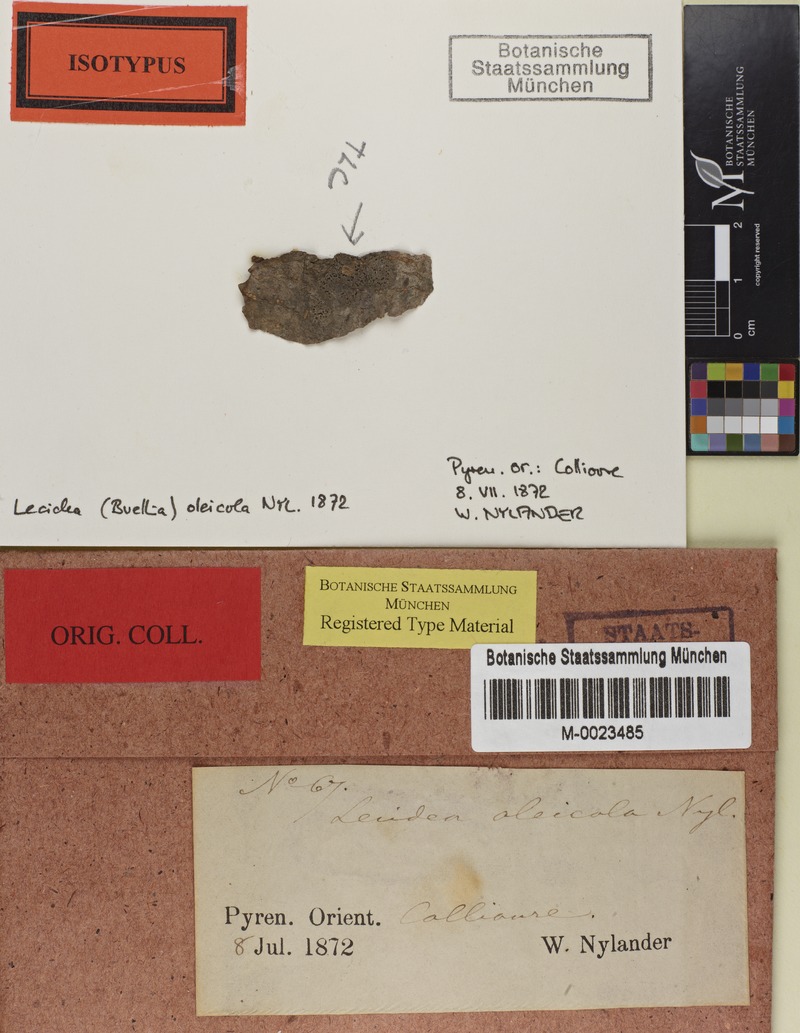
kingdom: Fungi
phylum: Ascomycota
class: Lecanoromycetes
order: Caliciales
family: Caliciaceae
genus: Amandinea
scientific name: Amandinea oleicola
